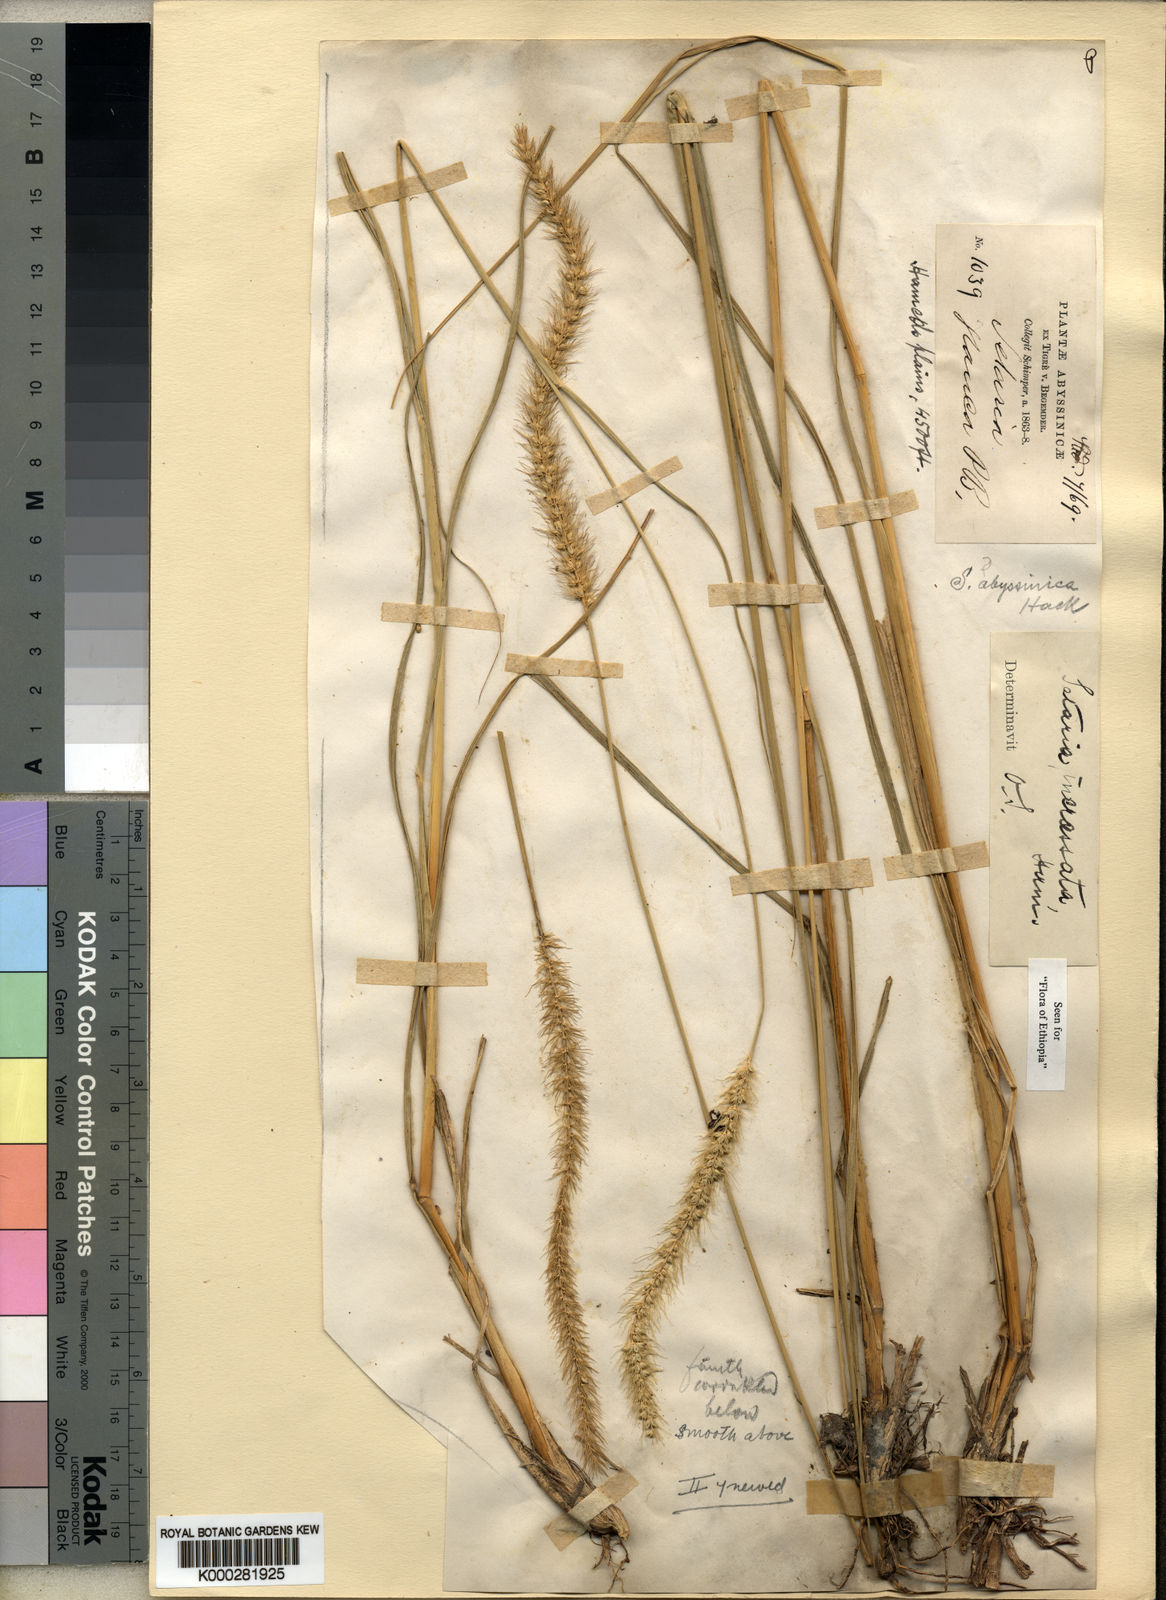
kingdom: Plantae
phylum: Tracheophyta
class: Liliopsida
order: Poales
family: Poaceae
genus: Setaria
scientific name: Setaria incrassata
